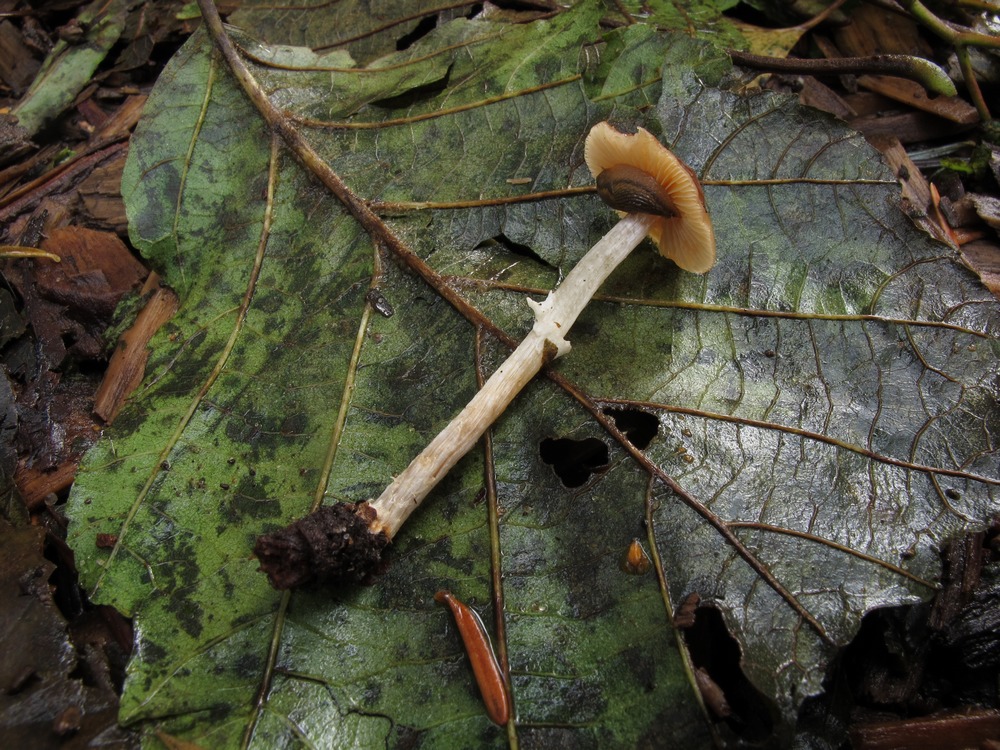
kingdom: Fungi
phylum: Basidiomycota
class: Agaricomycetes
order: Agaricales
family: Bolbitiaceae
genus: Conocybe
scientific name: Conocybe arrhenii
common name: ring-dansehat
